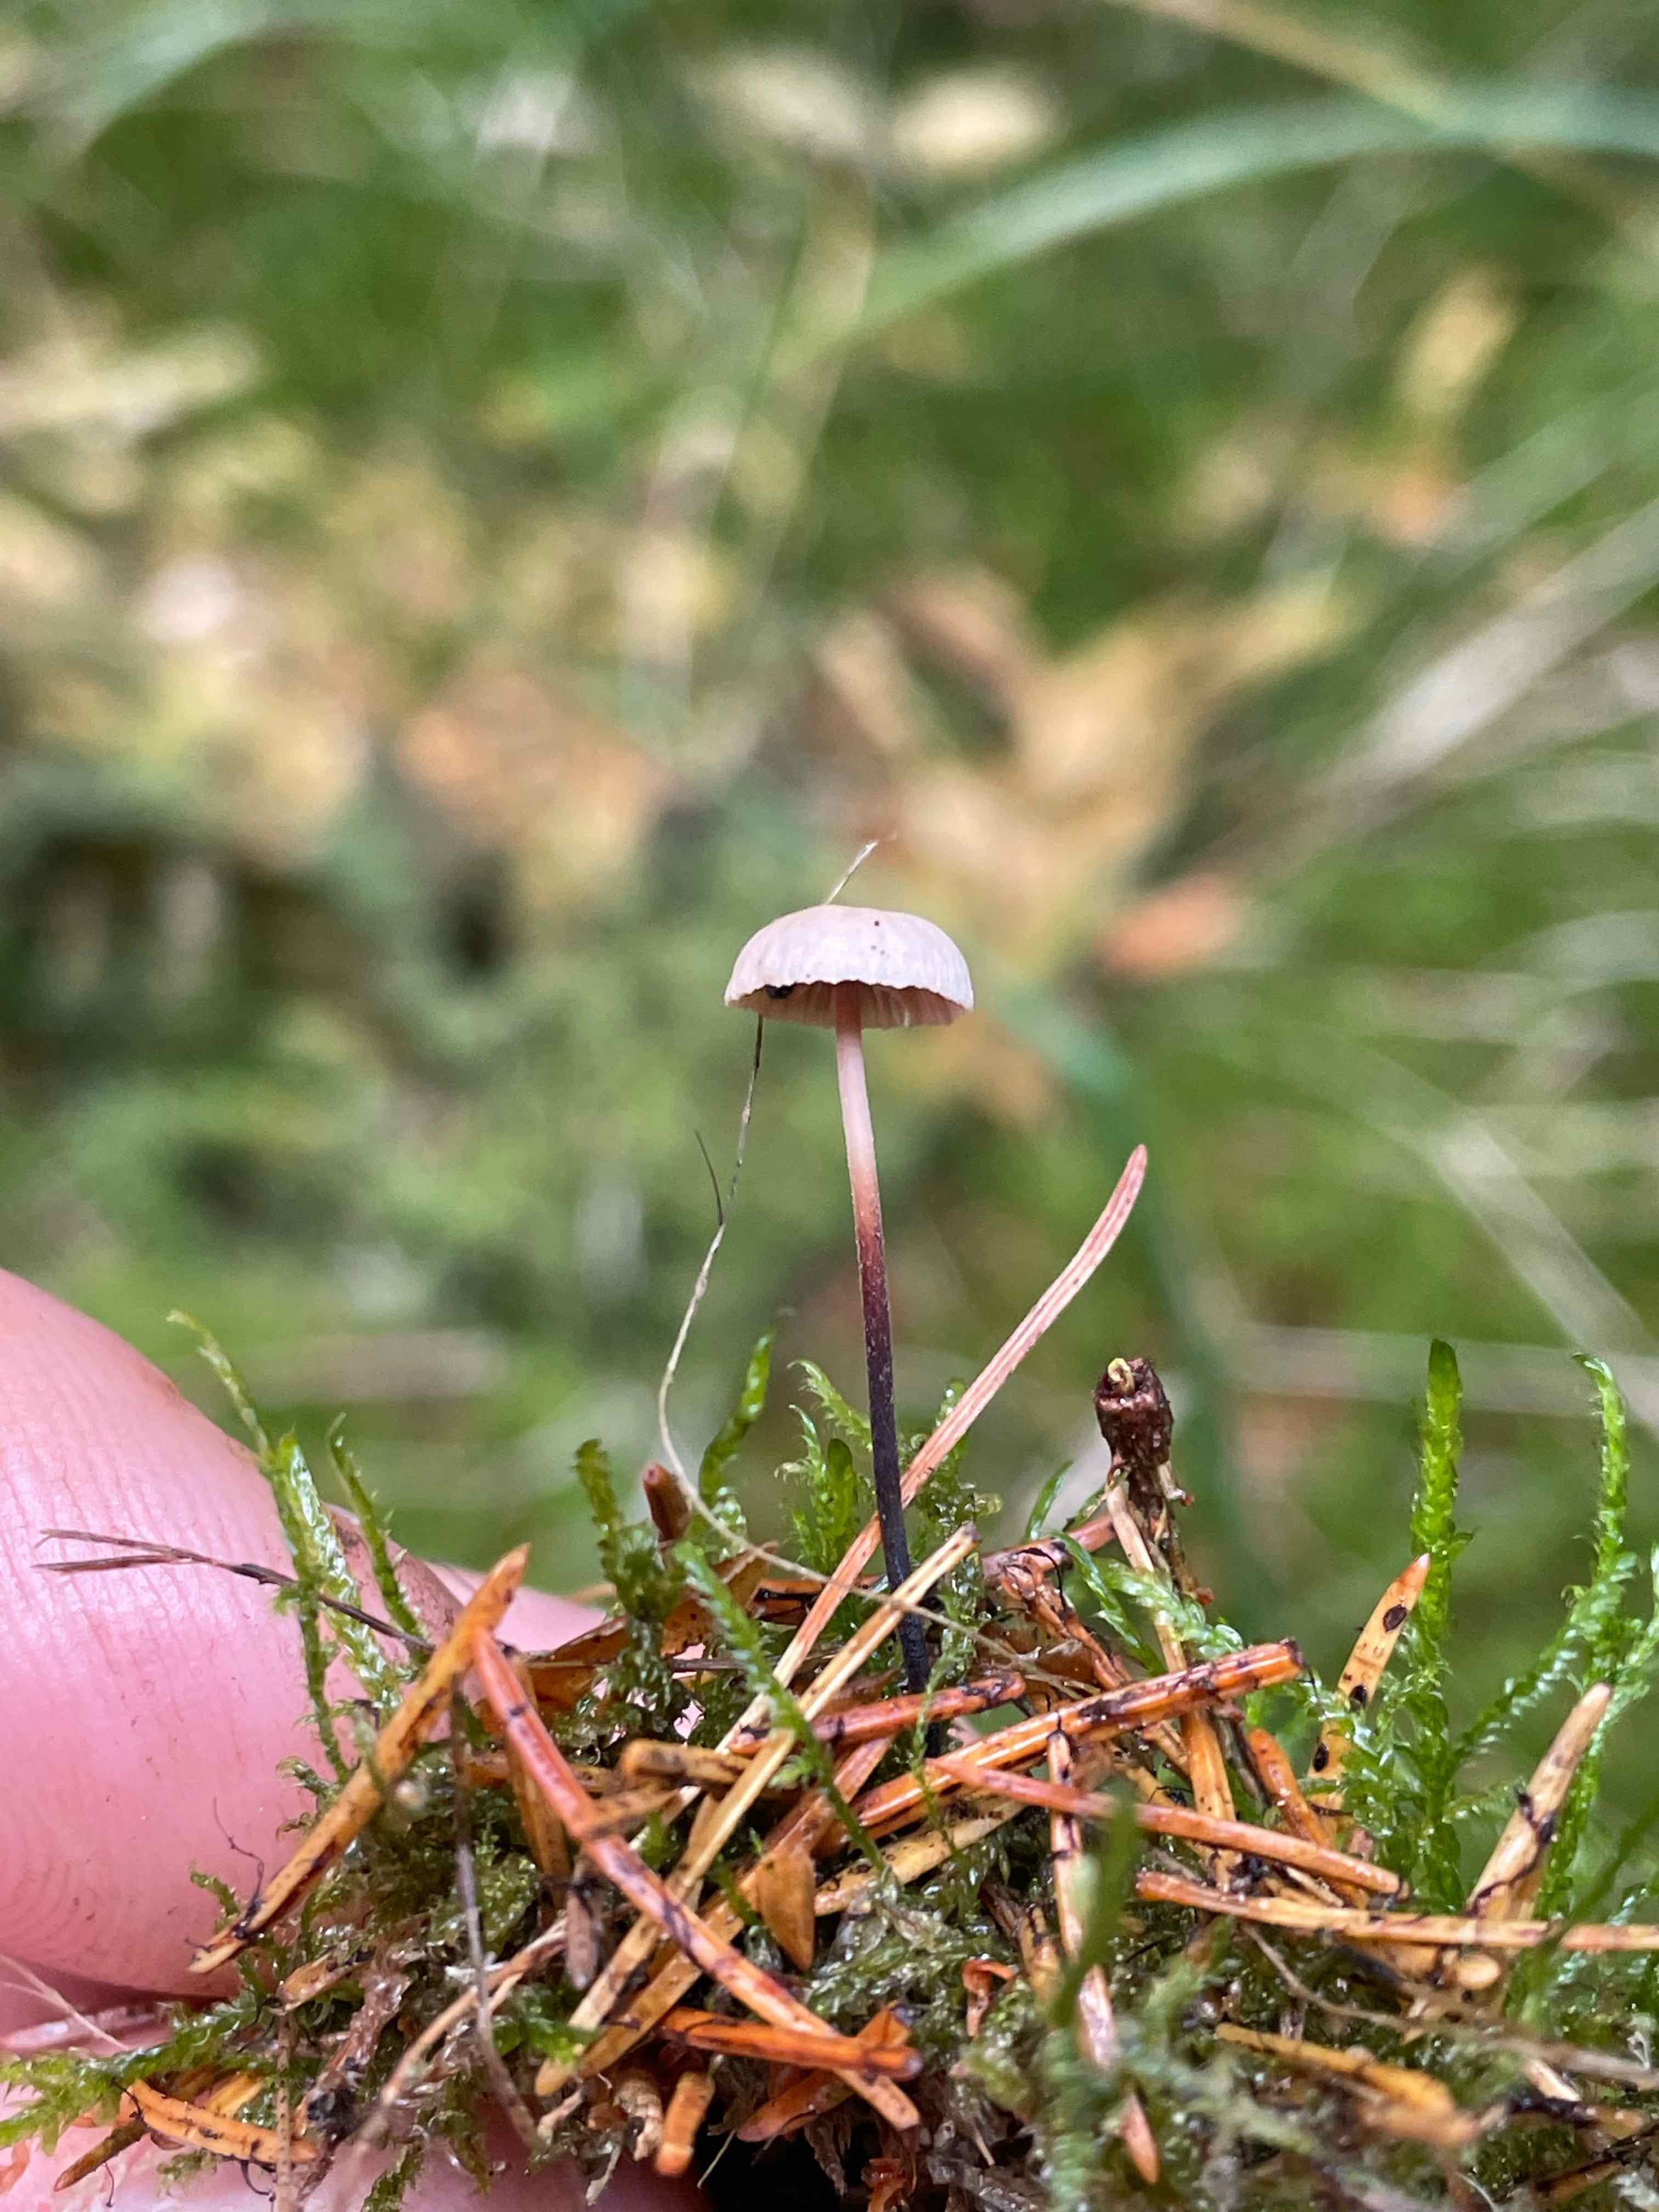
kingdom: Fungi
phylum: Basidiomycota
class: Agaricomycetes
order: Agaricales
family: Omphalotaceae
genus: Paragymnopus
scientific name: Paragymnopus perforans
